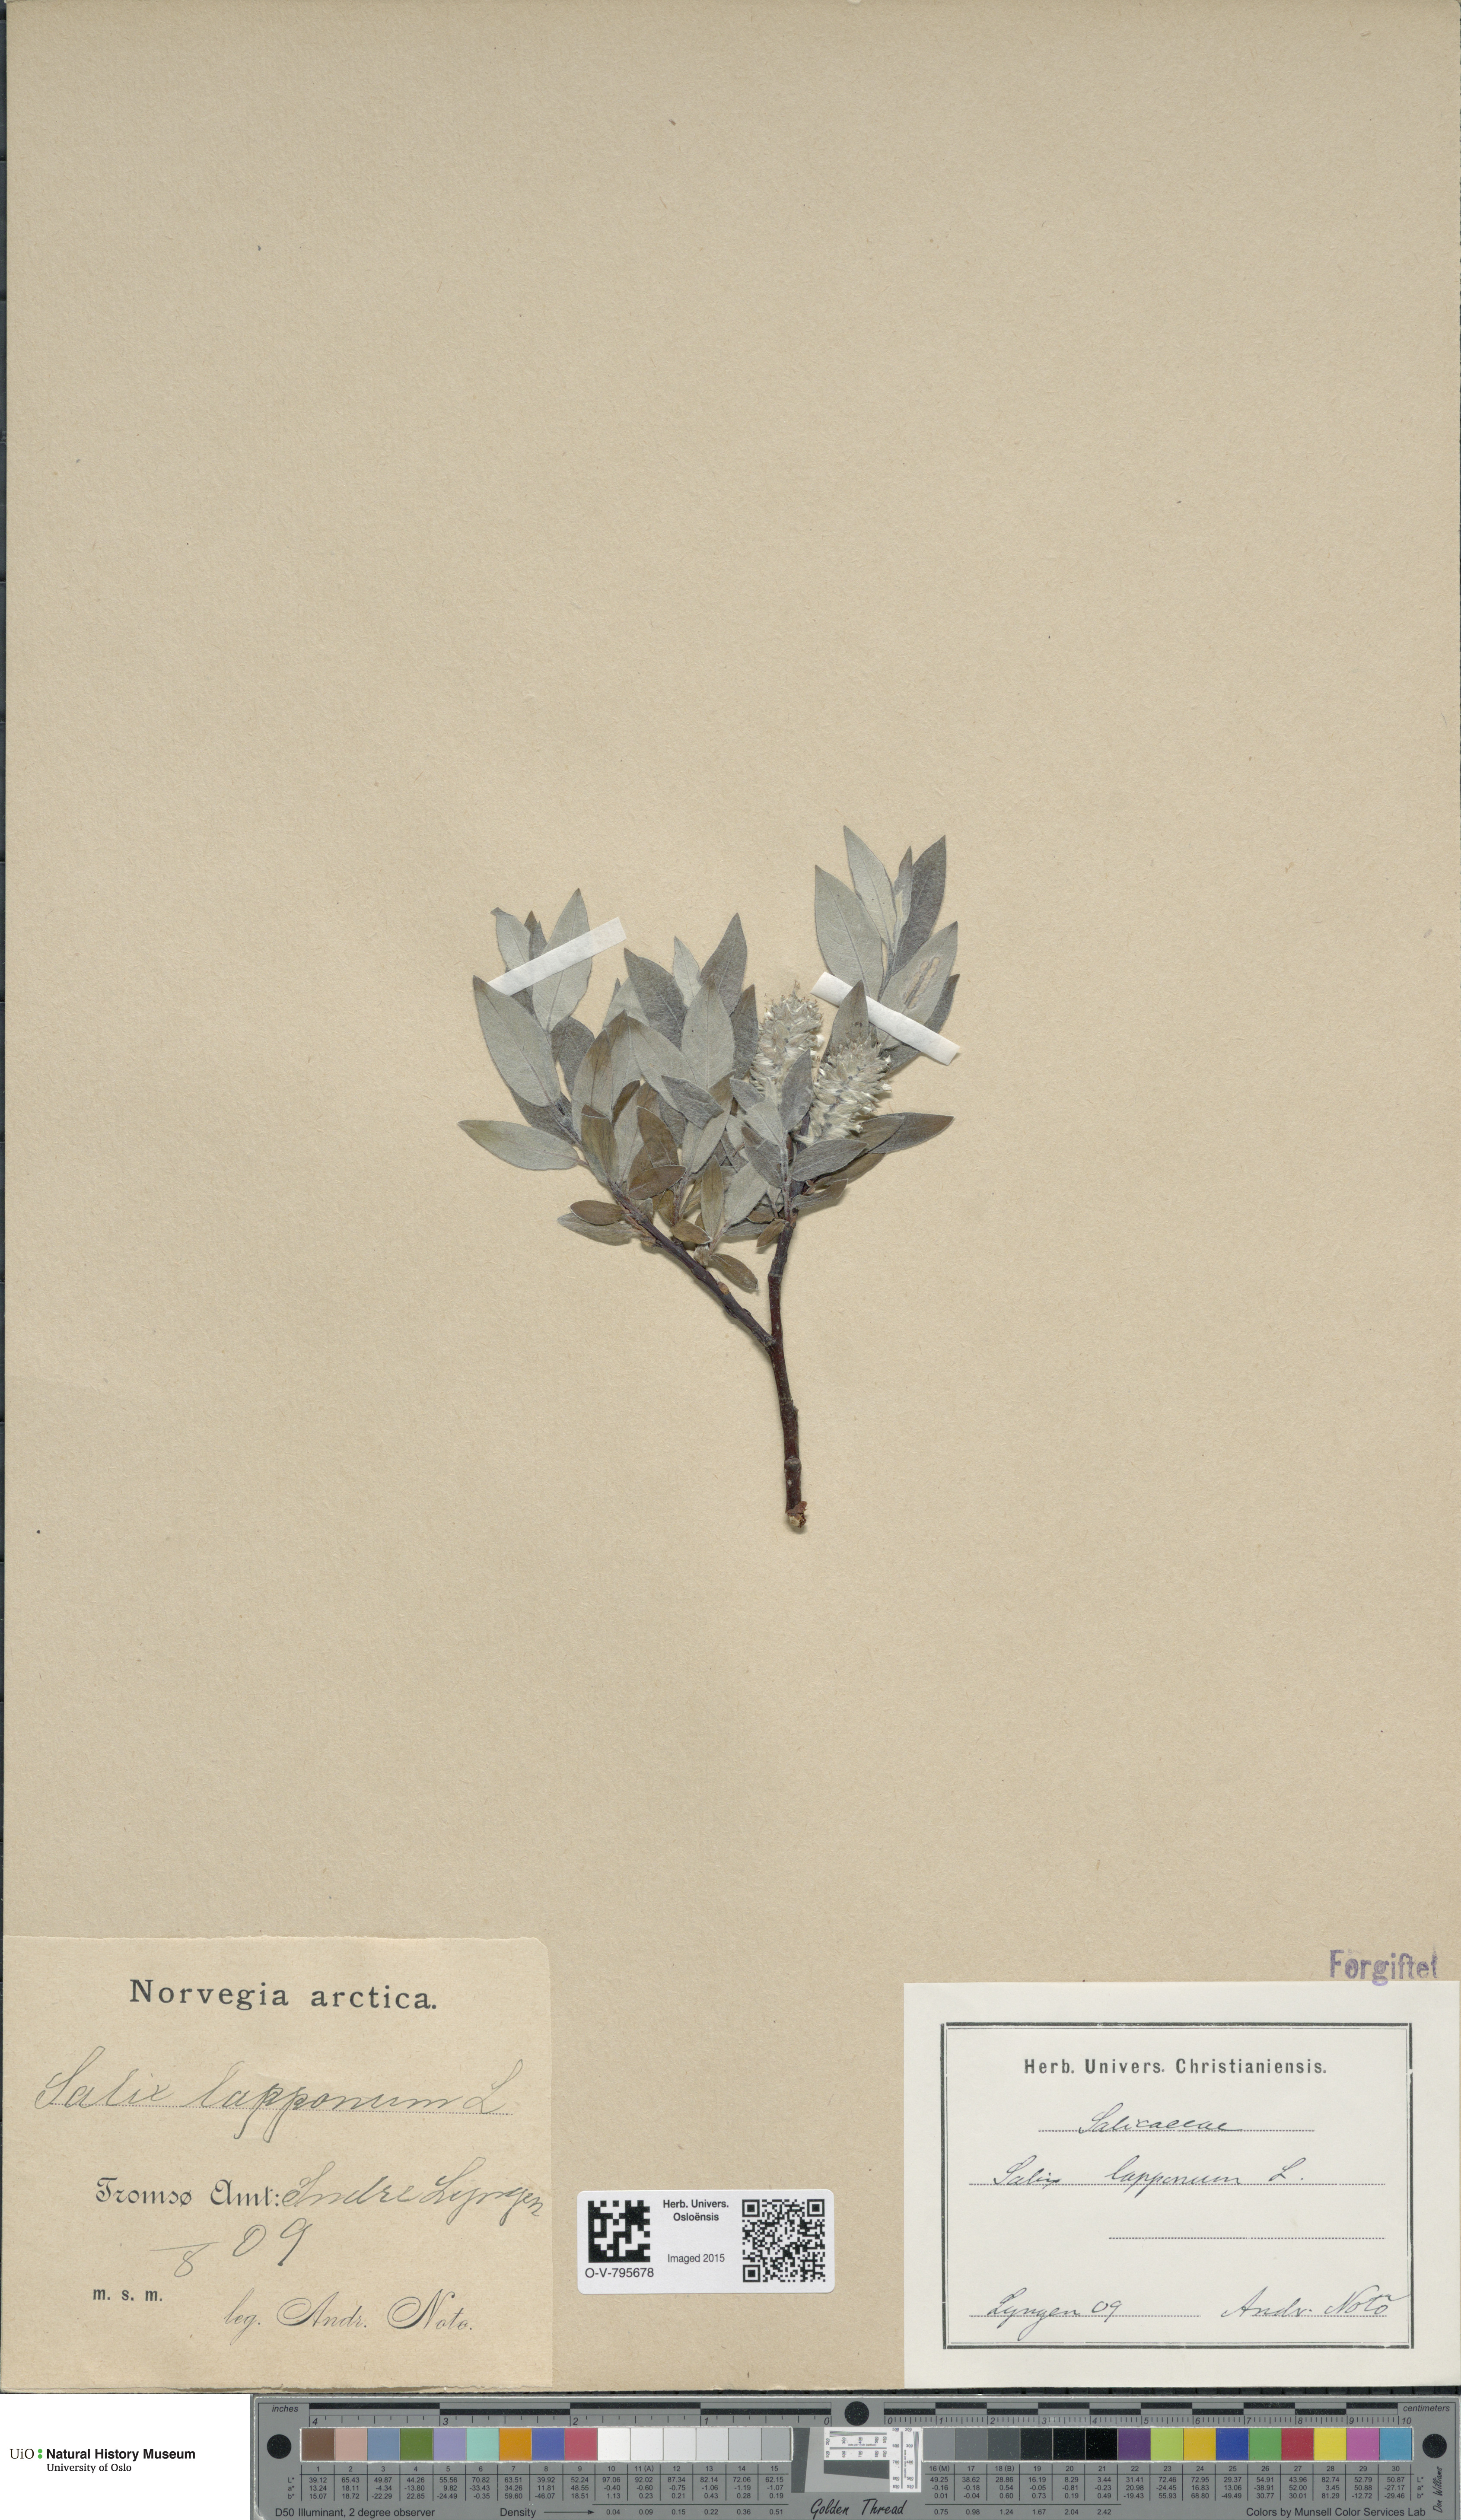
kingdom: Plantae
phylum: Tracheophyta
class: Magnoliopsida
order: Malpighiales
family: Salicaceae
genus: Salix
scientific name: Salix lapponum
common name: Downy willow
